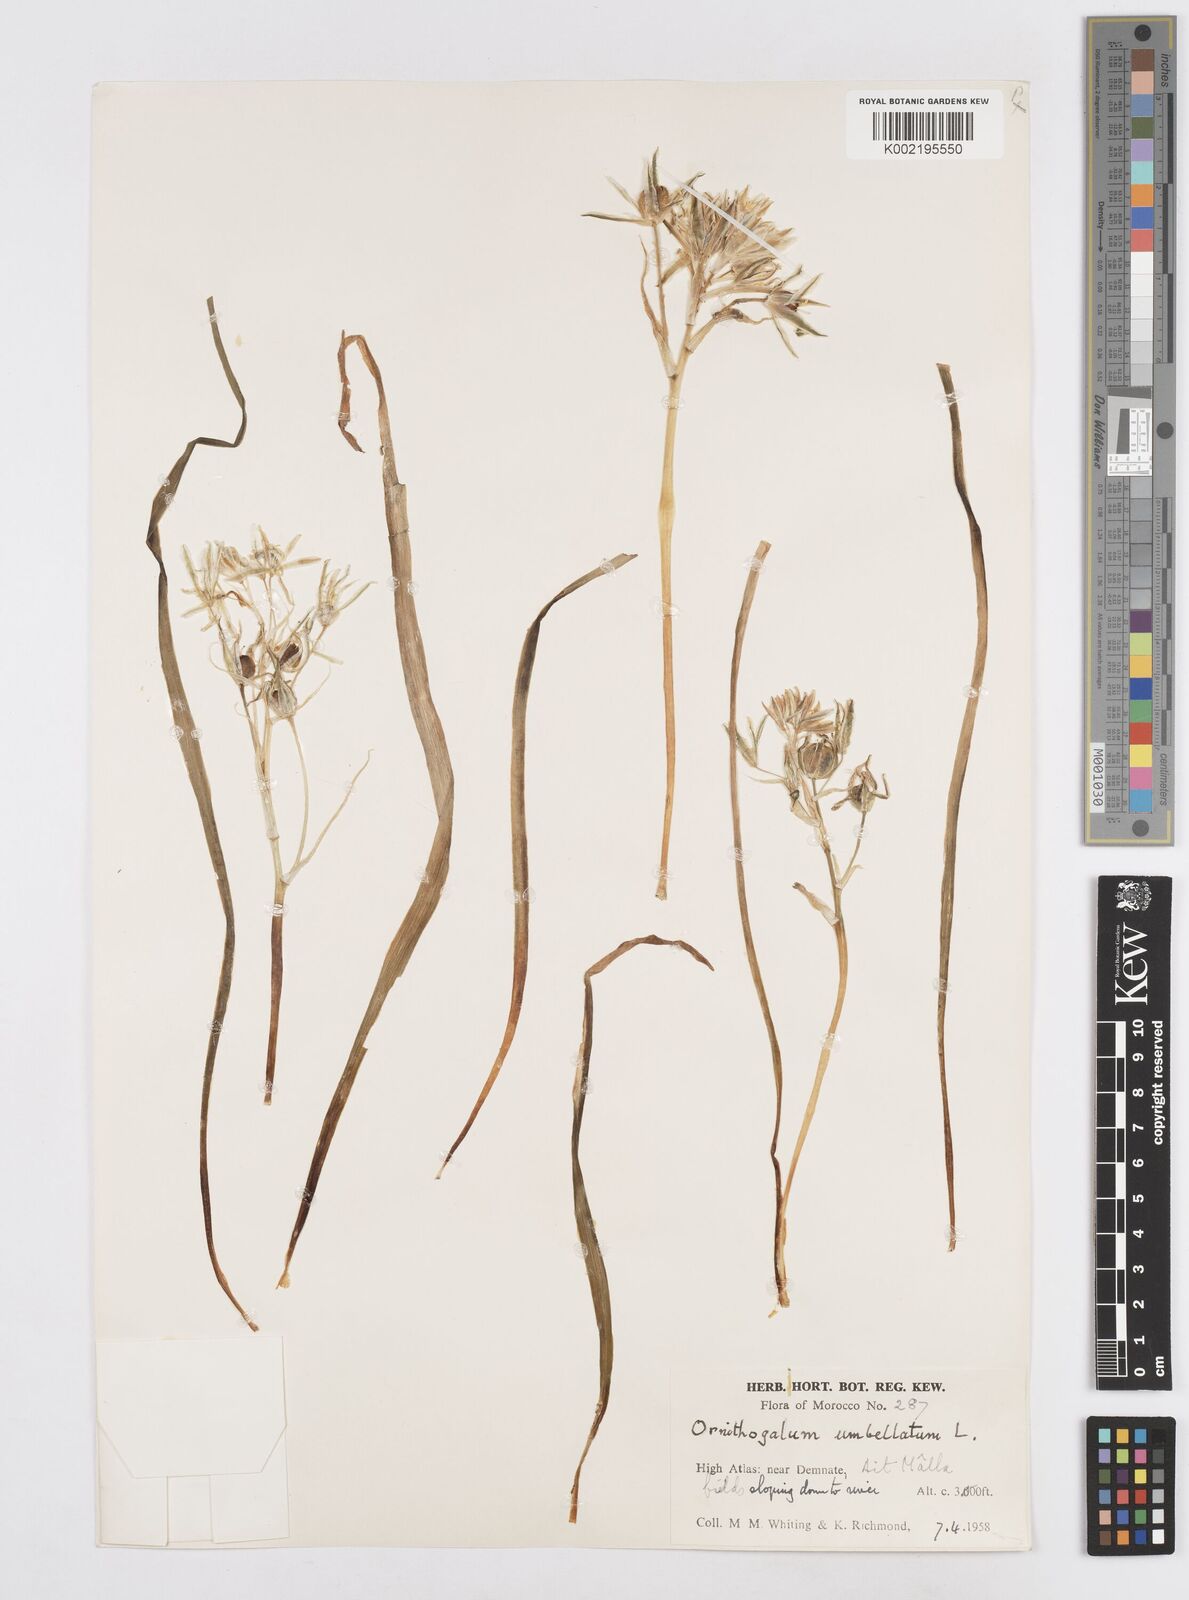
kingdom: Plantae
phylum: Tracheophyta
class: Liliopsida
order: Asparagales
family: Asparagaceae
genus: Ornithogalum
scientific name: Ornithogalum umbellatum
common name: Garden star-of-bethlehem
